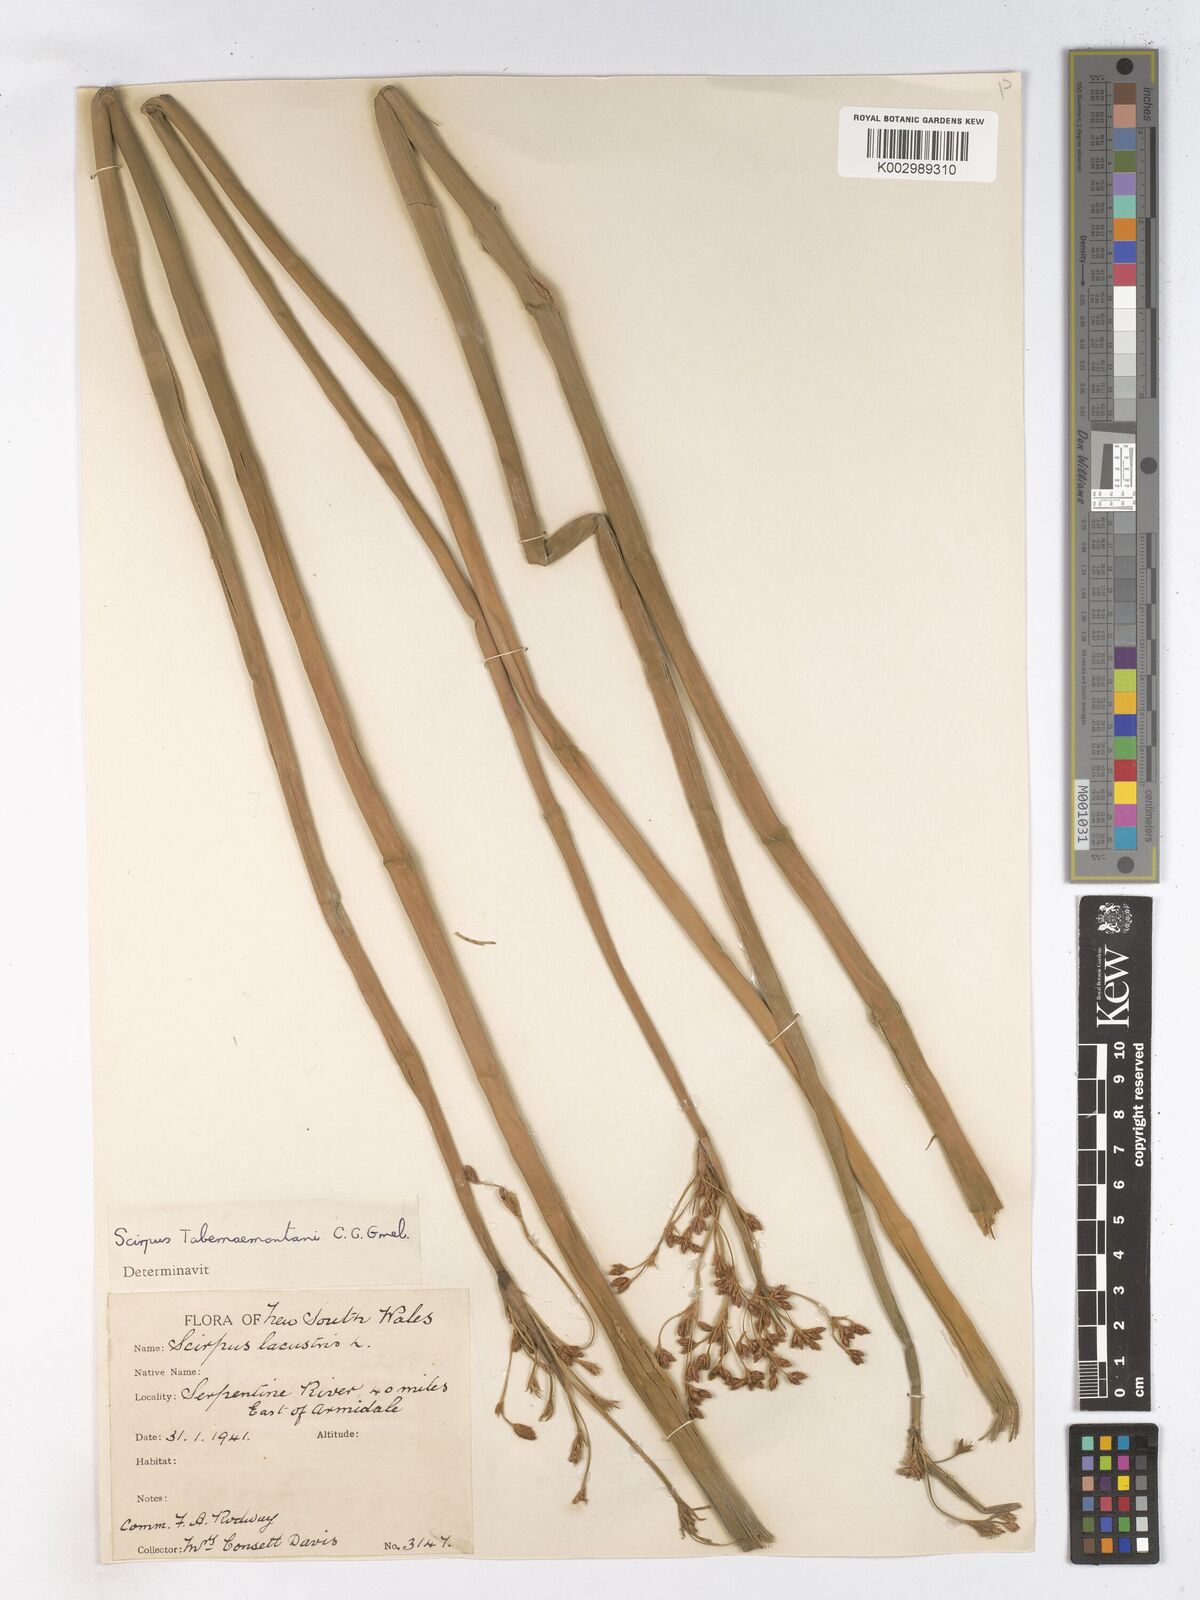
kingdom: Plantae
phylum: Tracheophyta
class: Liliopsida
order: Poales
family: Cyperaceae
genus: Schoenoplectus
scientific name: Schoenoplectus tabernaemontani
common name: Grey club-rush
